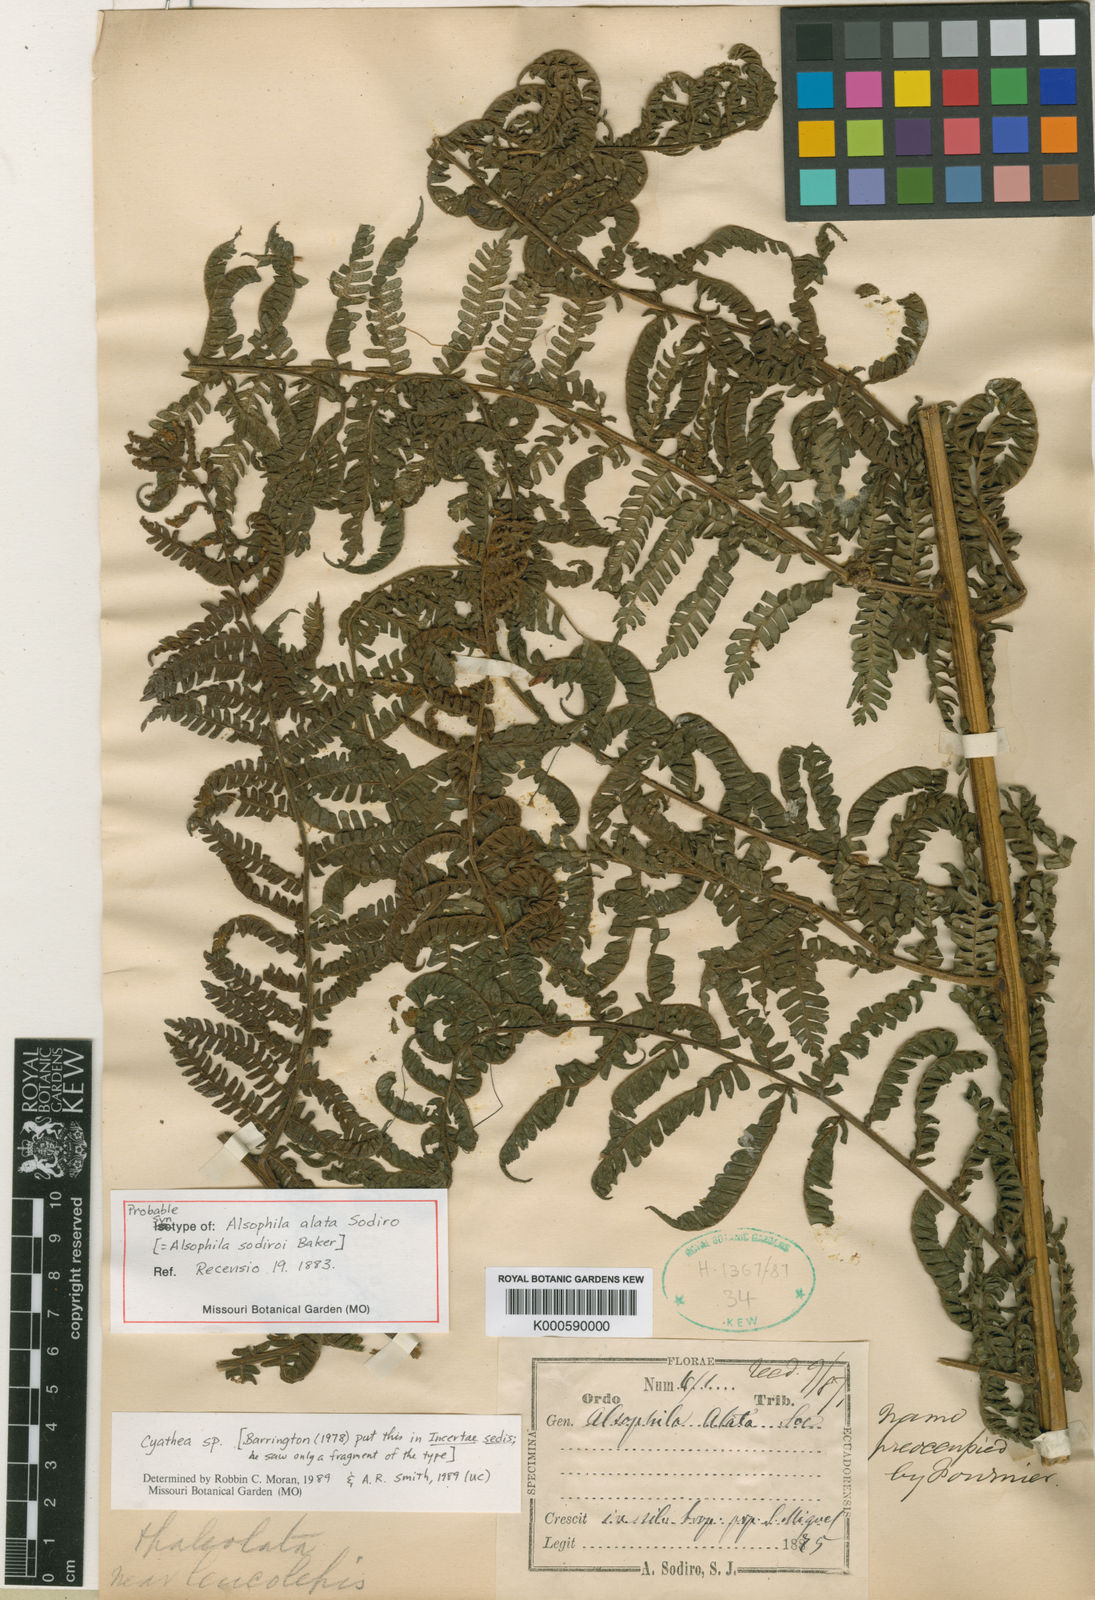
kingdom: Plantae
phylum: Tracheophyta
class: Polypodiopsida
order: Cyatheales
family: Cyatheaceae
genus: Cyathea
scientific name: Cyathea caracasana
